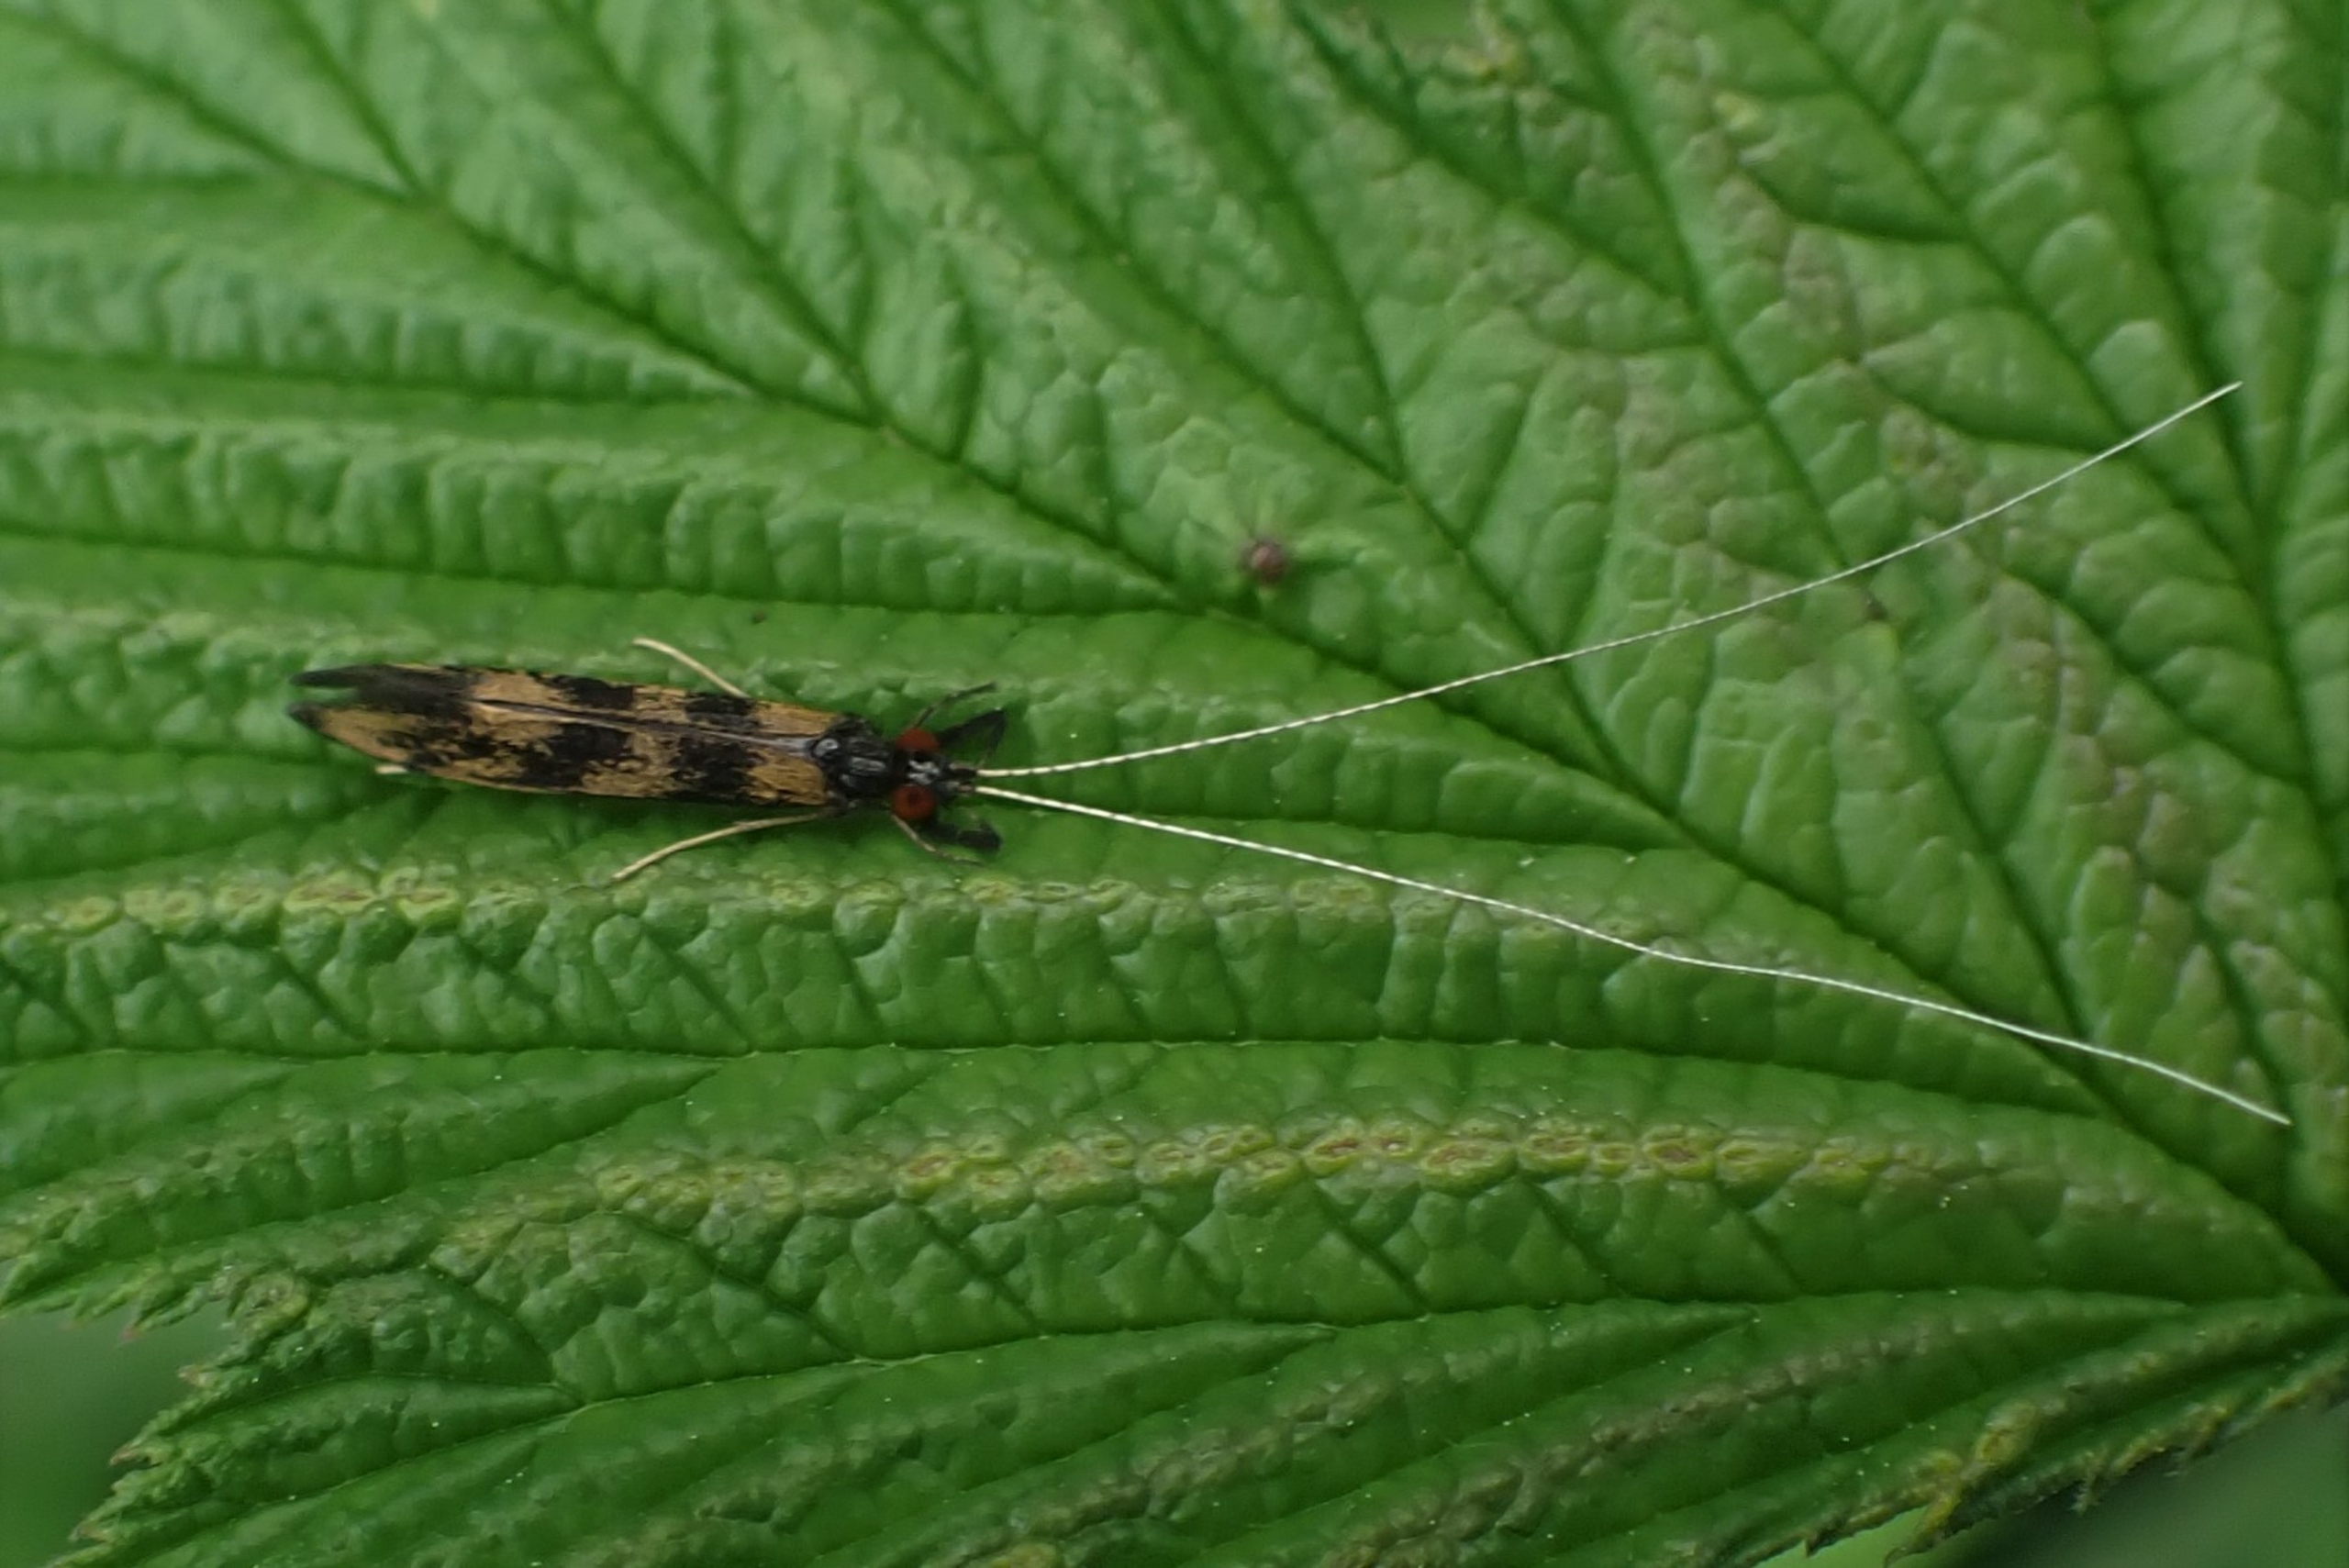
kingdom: Animalia
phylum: Arthropoda
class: Insecta
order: Trichoptera
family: Leptoceridae
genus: Mystacides
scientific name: Mystacides longicornis
